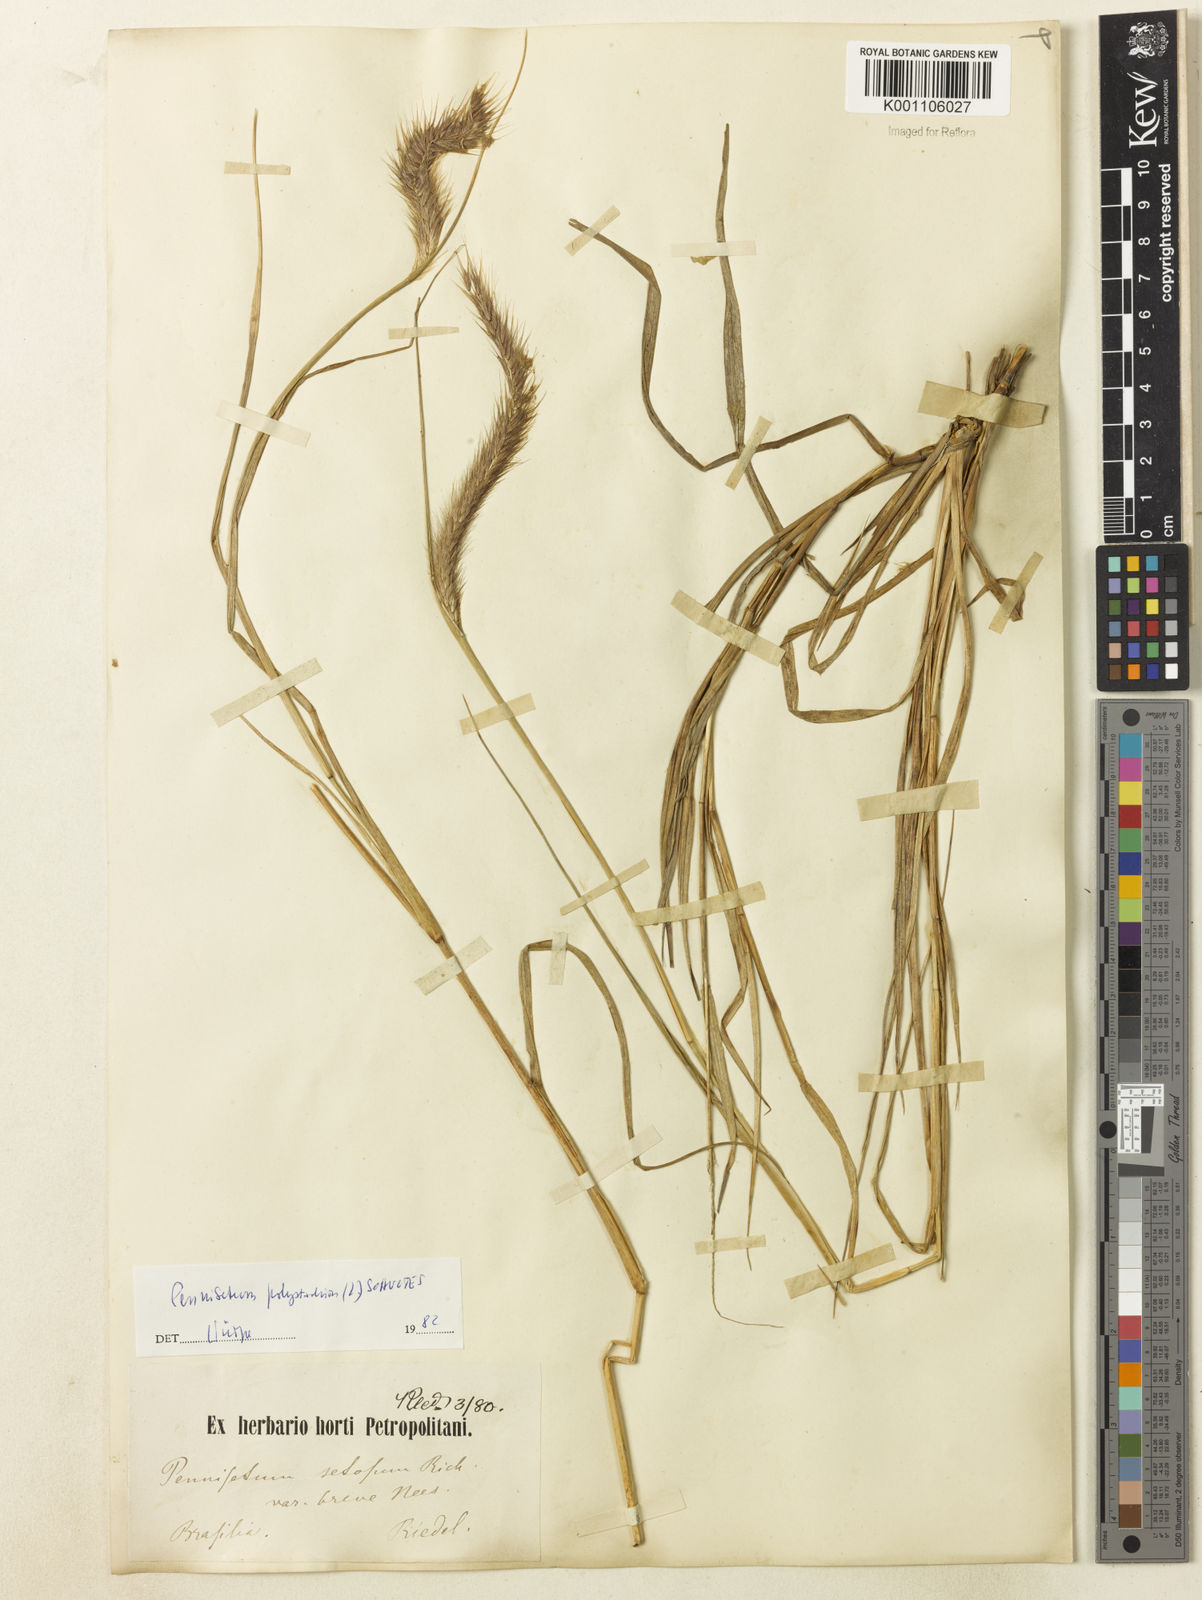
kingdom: Plantae
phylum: Tracheophyta
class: Liliopsida
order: Poales
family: Poaceae
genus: Setaria
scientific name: Setaria parviflora
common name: Knotroot bristle-grass
